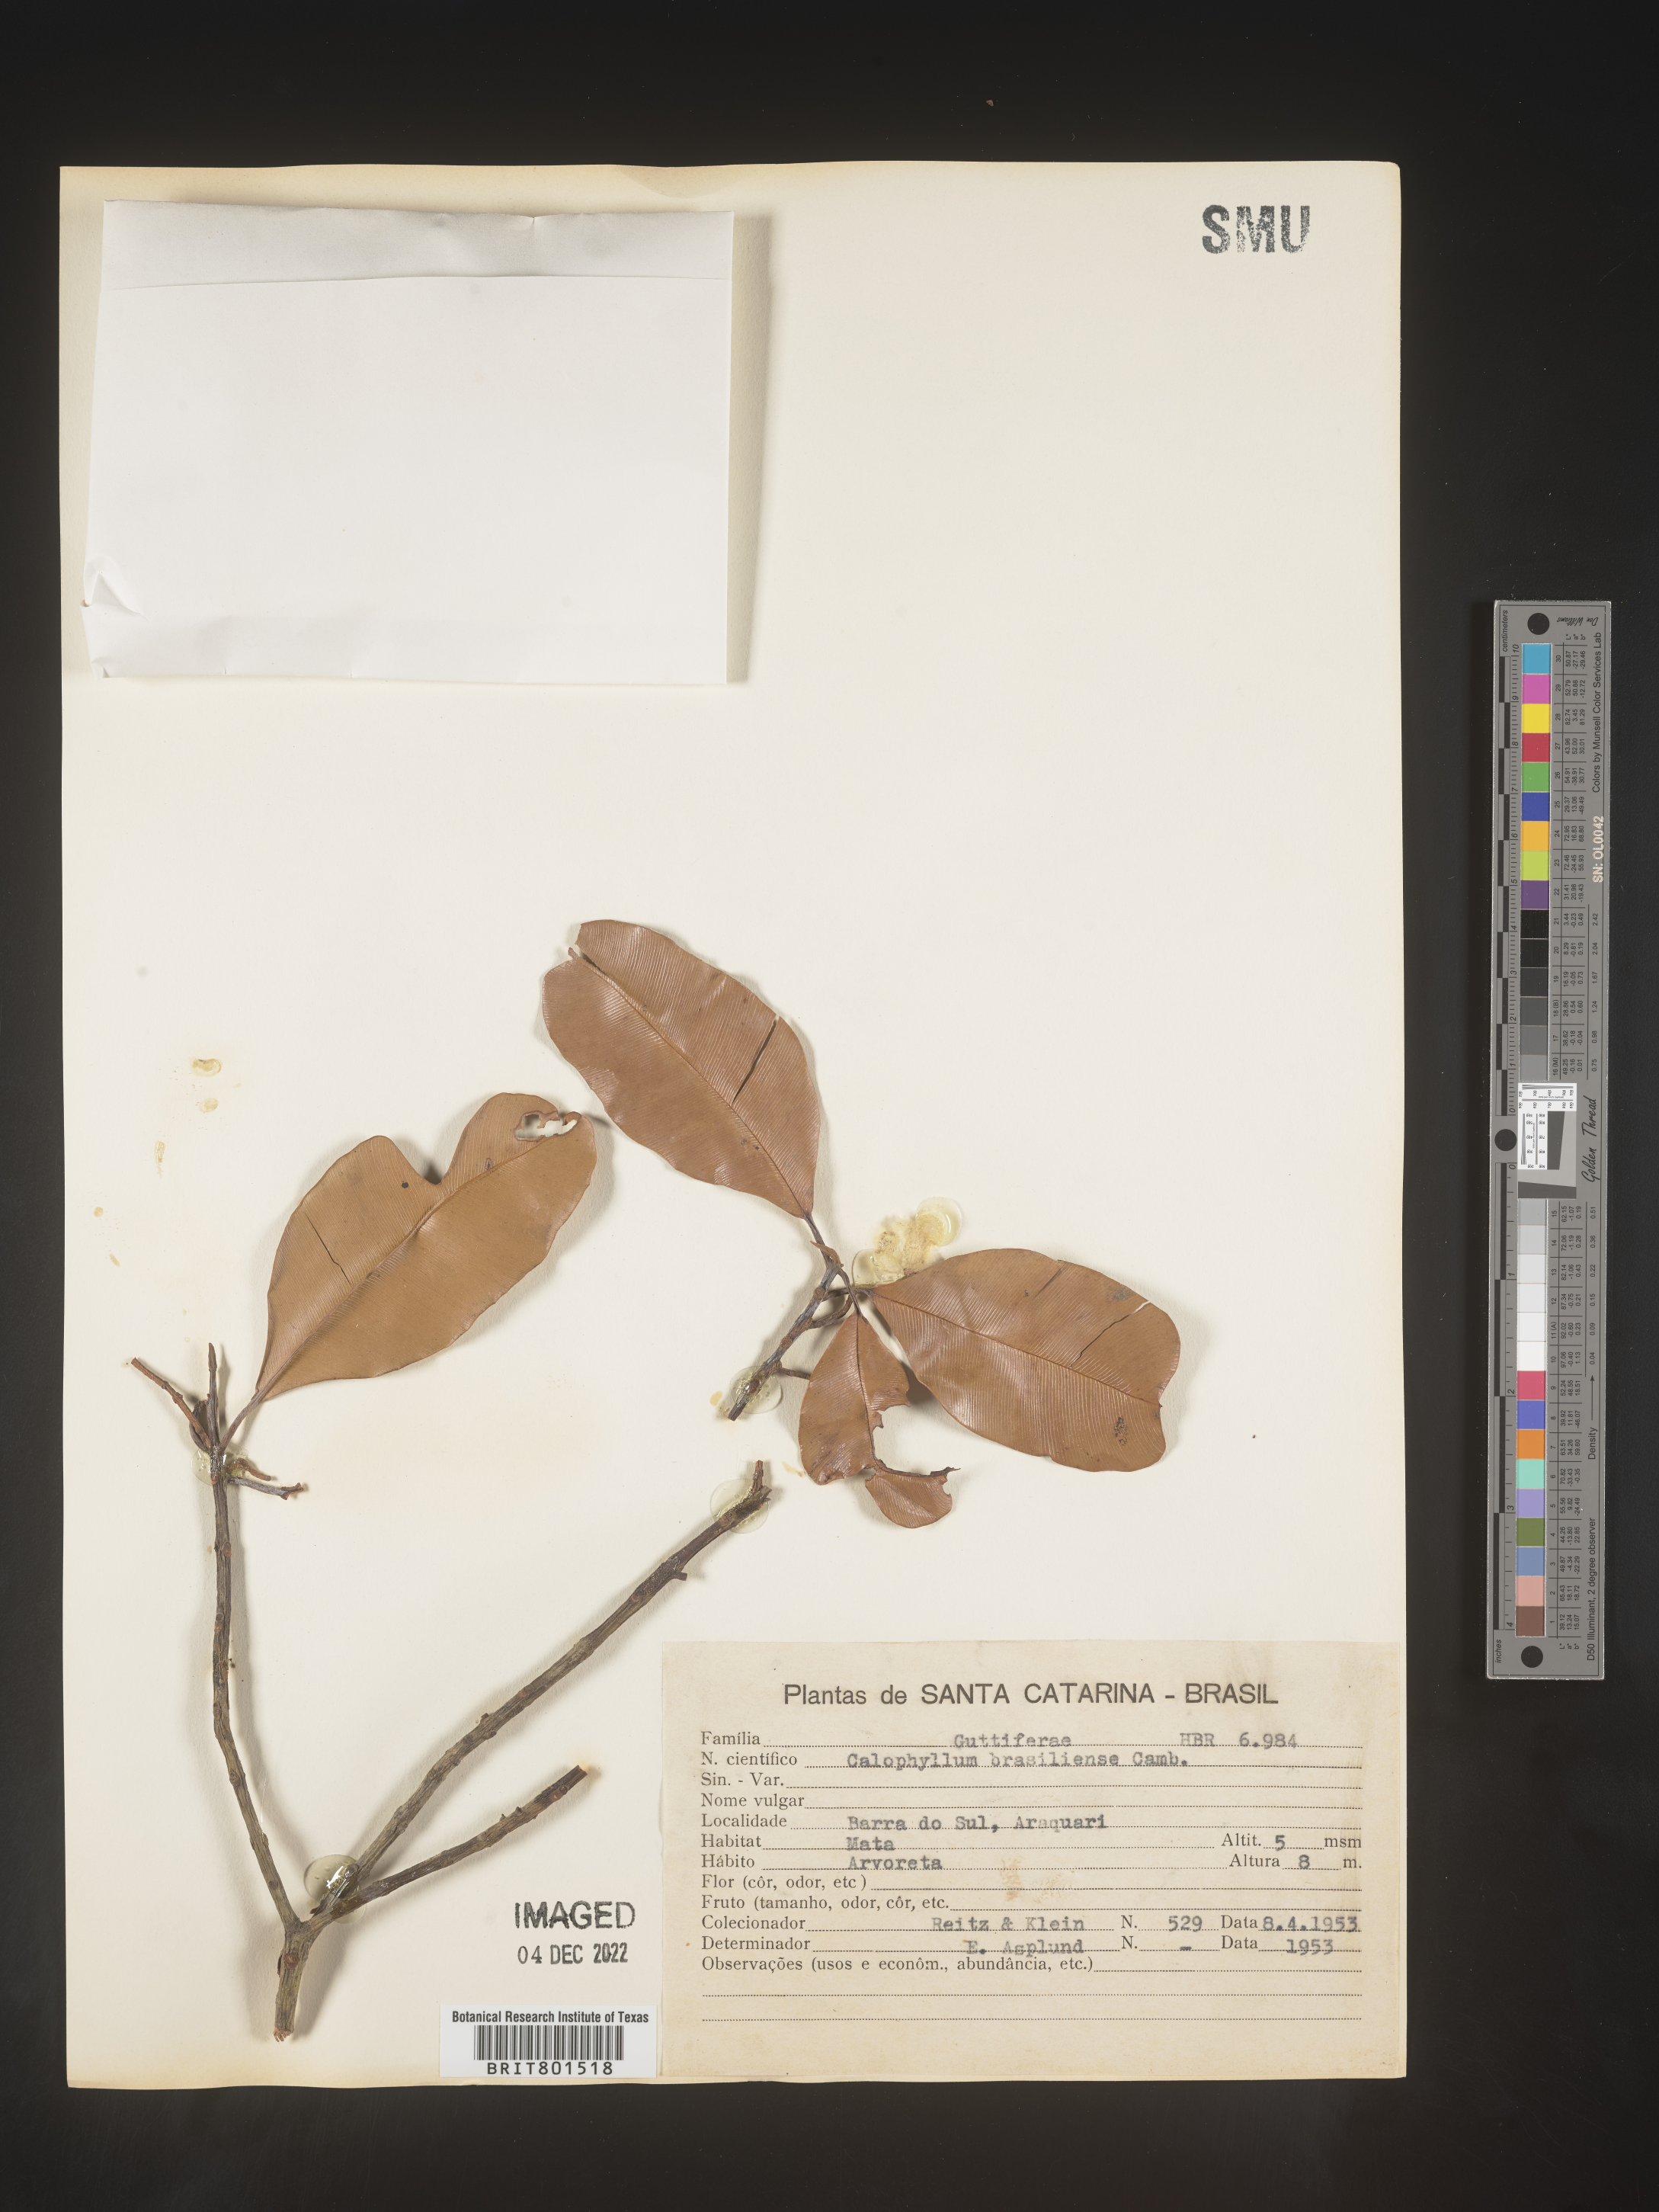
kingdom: Plantae
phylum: Tracheophyta
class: Magnoliopsida
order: Malpighiales
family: Calophyllaceae
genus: Calophyllum
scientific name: Calophyllum brasiliense
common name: Santa maria
